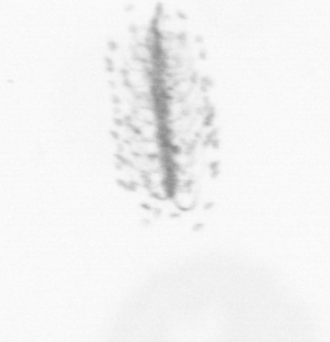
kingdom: Chromista
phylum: Ochrophyta
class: Bacillariophyceae
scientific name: Bacillariophyceae
